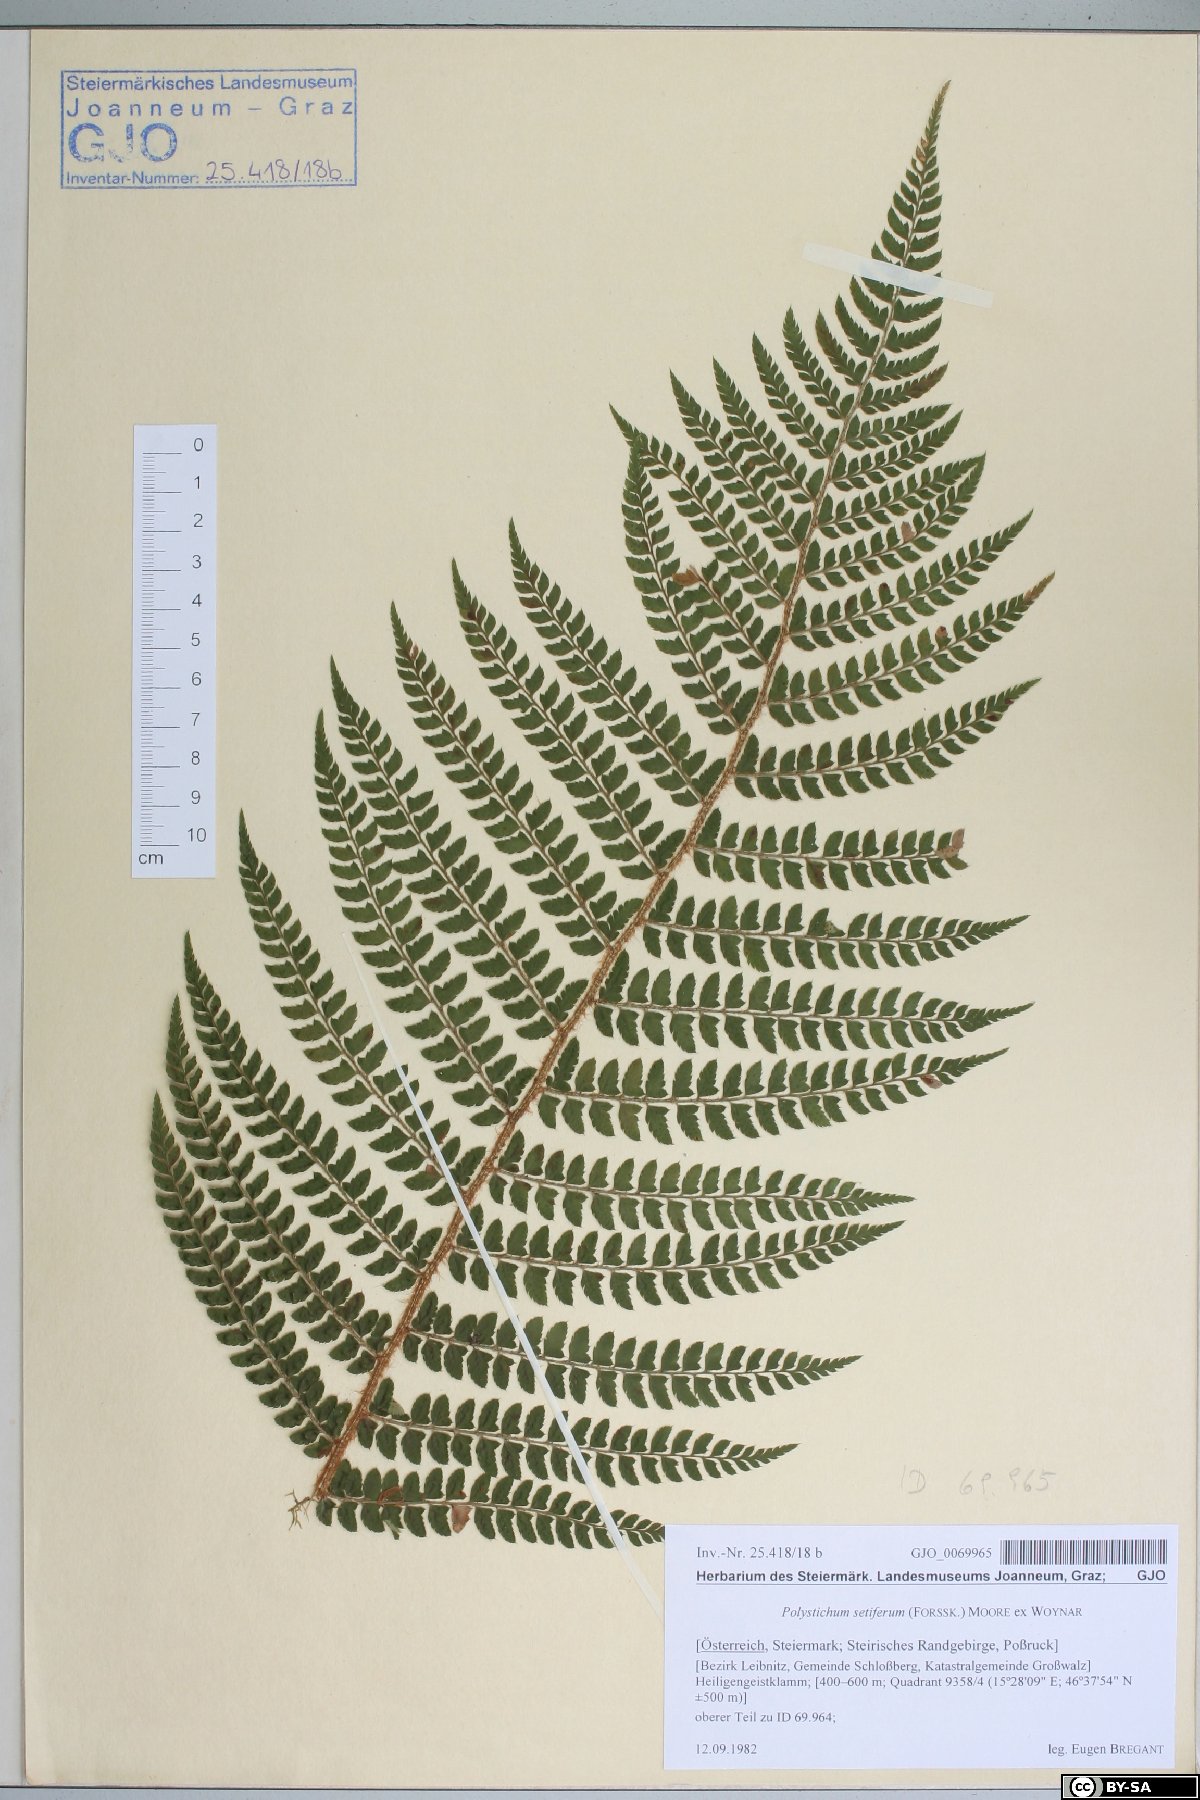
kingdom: Plantae
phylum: Tracheophyta
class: Polypodiopsida
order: Polypodiales
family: Dryopteridaceae
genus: Polystichum
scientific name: Polystichum setiferum
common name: Soft shield-fern
